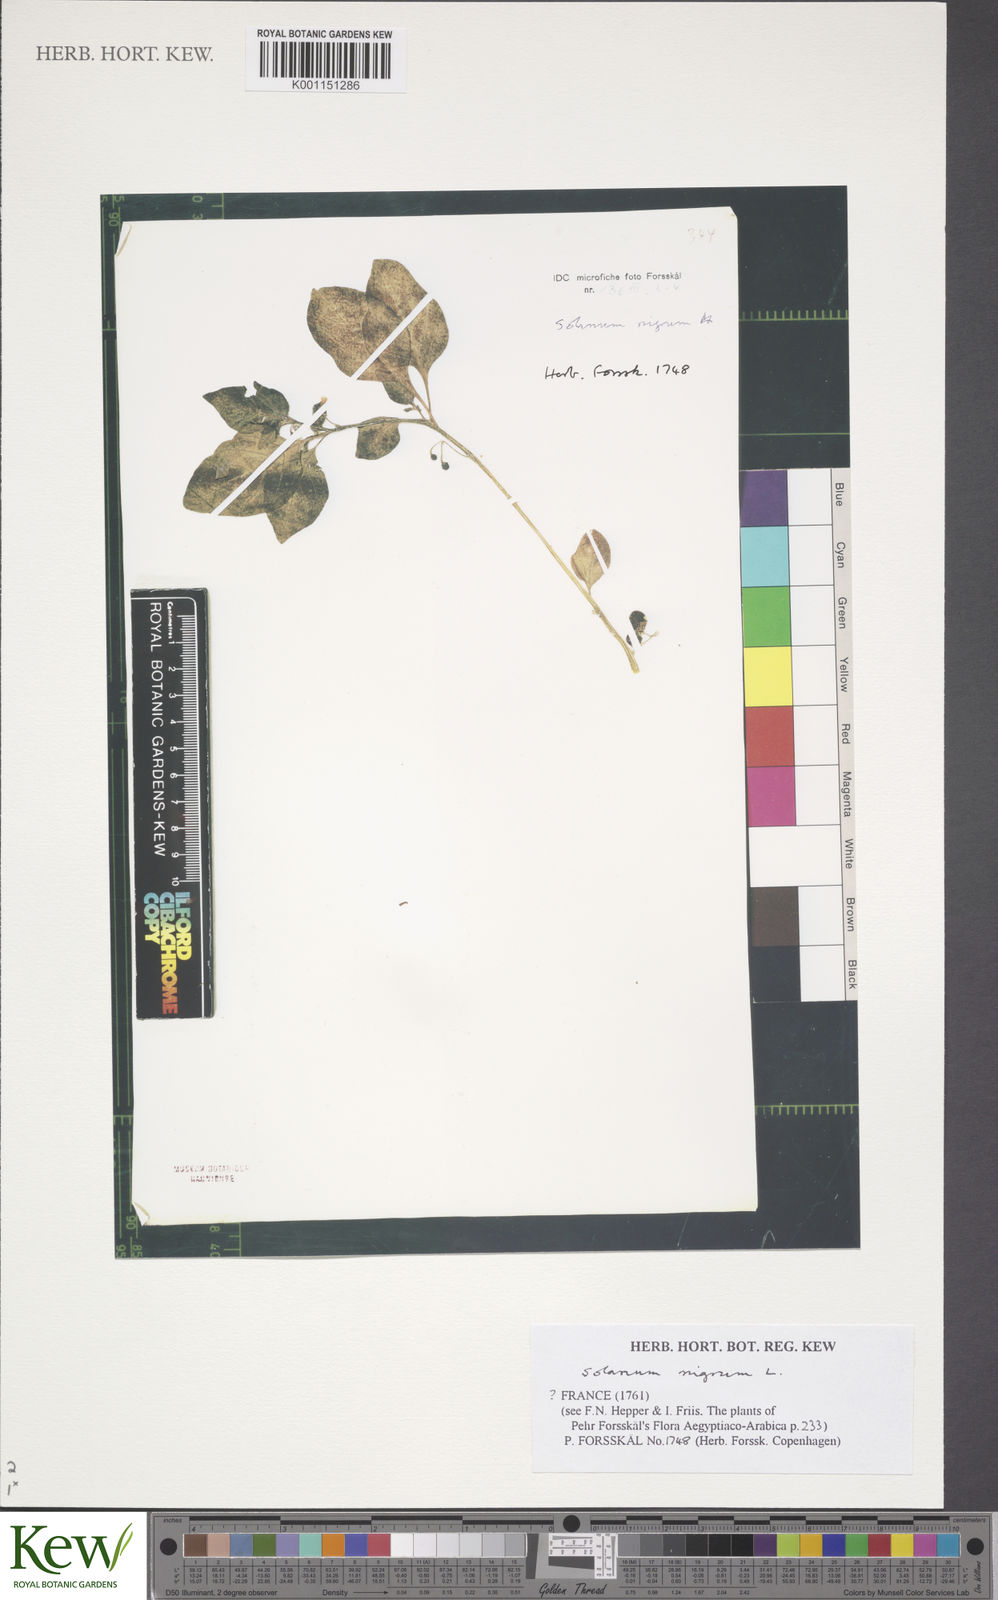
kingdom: Plantae
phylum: Tracheophyta
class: Magnoliopsida
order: Solanales
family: Solanaceae
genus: Solanum
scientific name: Solanum nigrum
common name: Black nightshade
